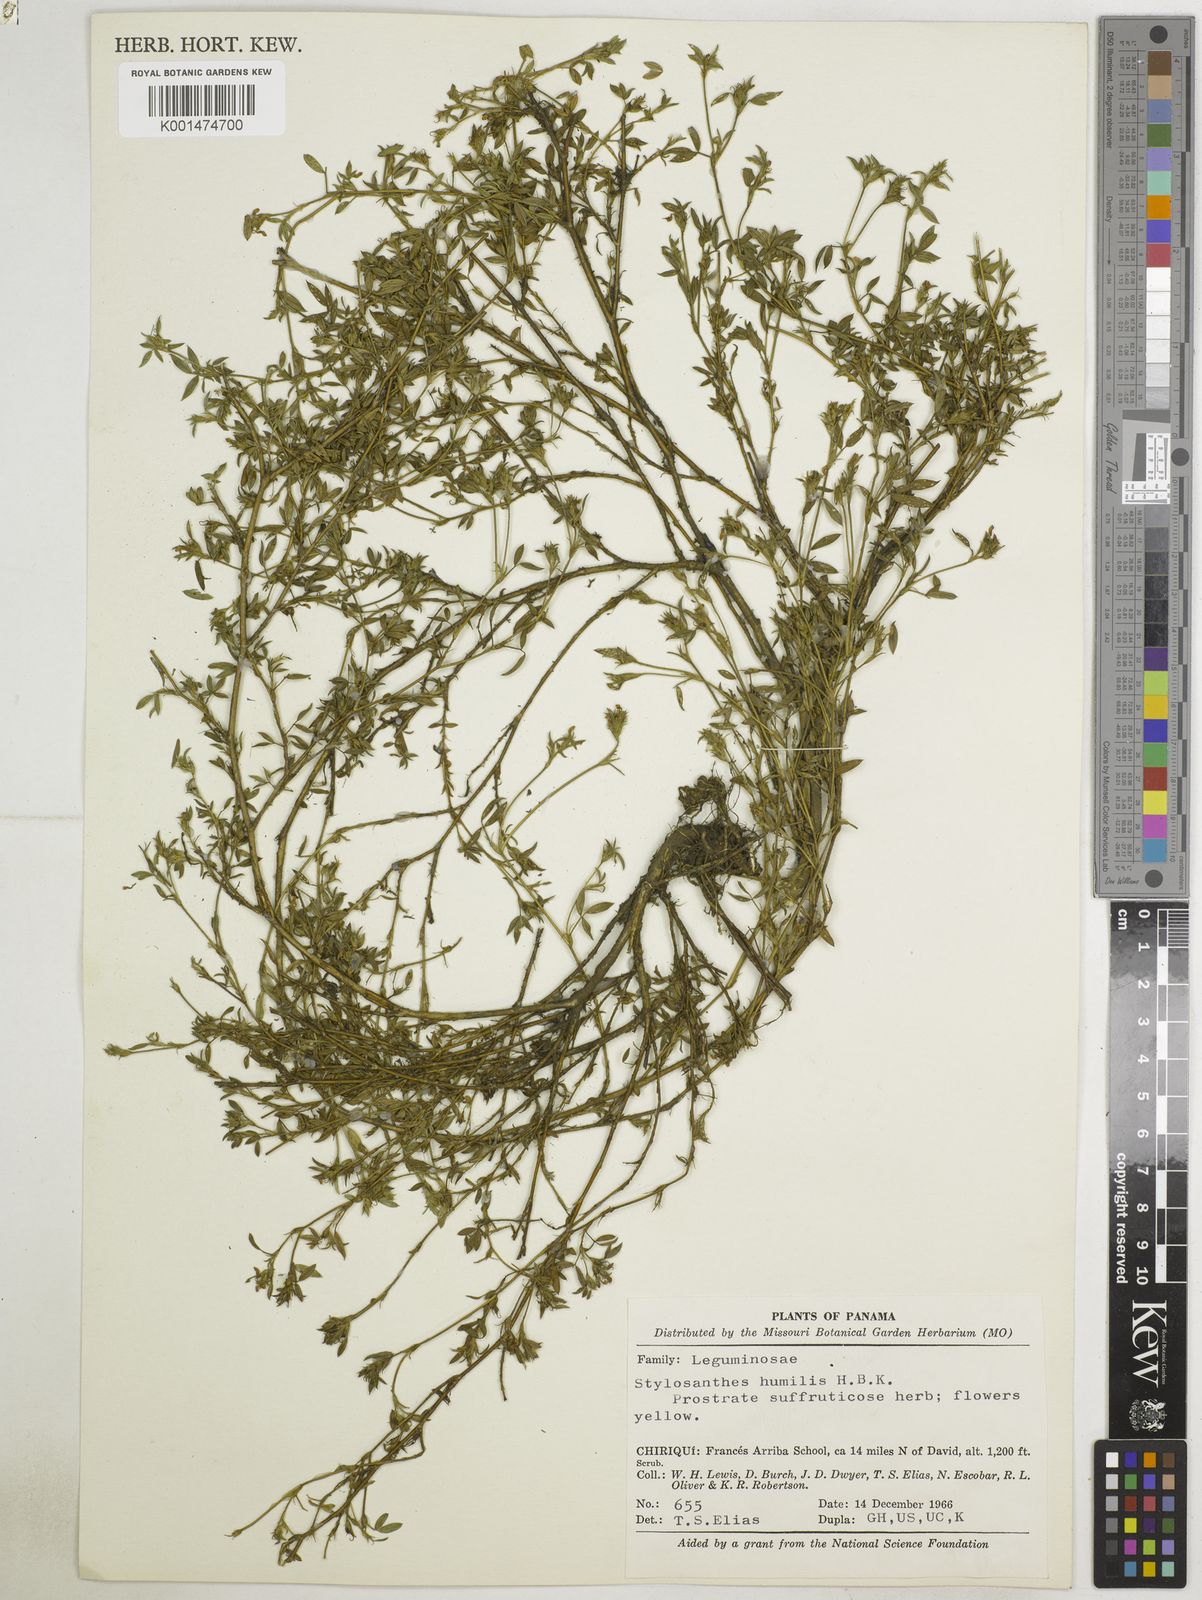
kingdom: Plantae
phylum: Tracheophyta
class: Magnoliopsida
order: Fabales
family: Fabaceae
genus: Stylosanthes
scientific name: Stylosanthes humilis
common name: Townsville stylo
